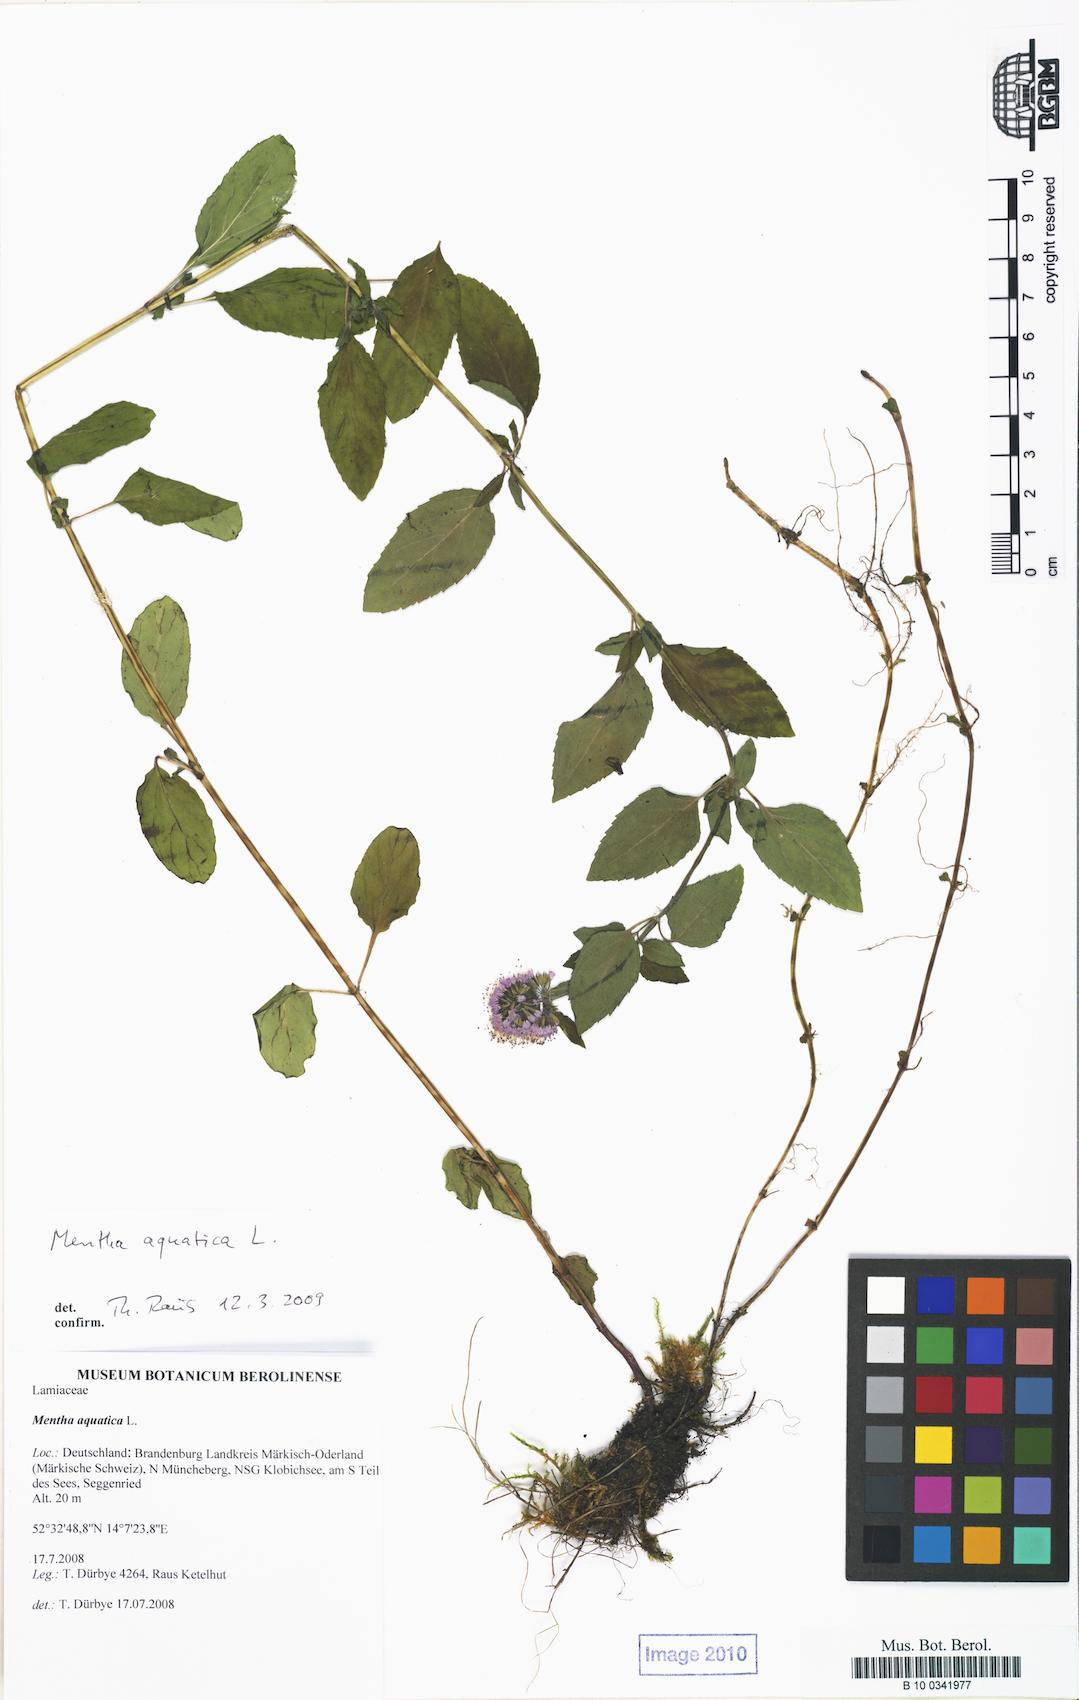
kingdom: Plantae
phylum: Tracheophyta
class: Magnoliopsida
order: Lamiales
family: Lamiaceae
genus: Mentha
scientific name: Mentha aquatica
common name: Water mint
